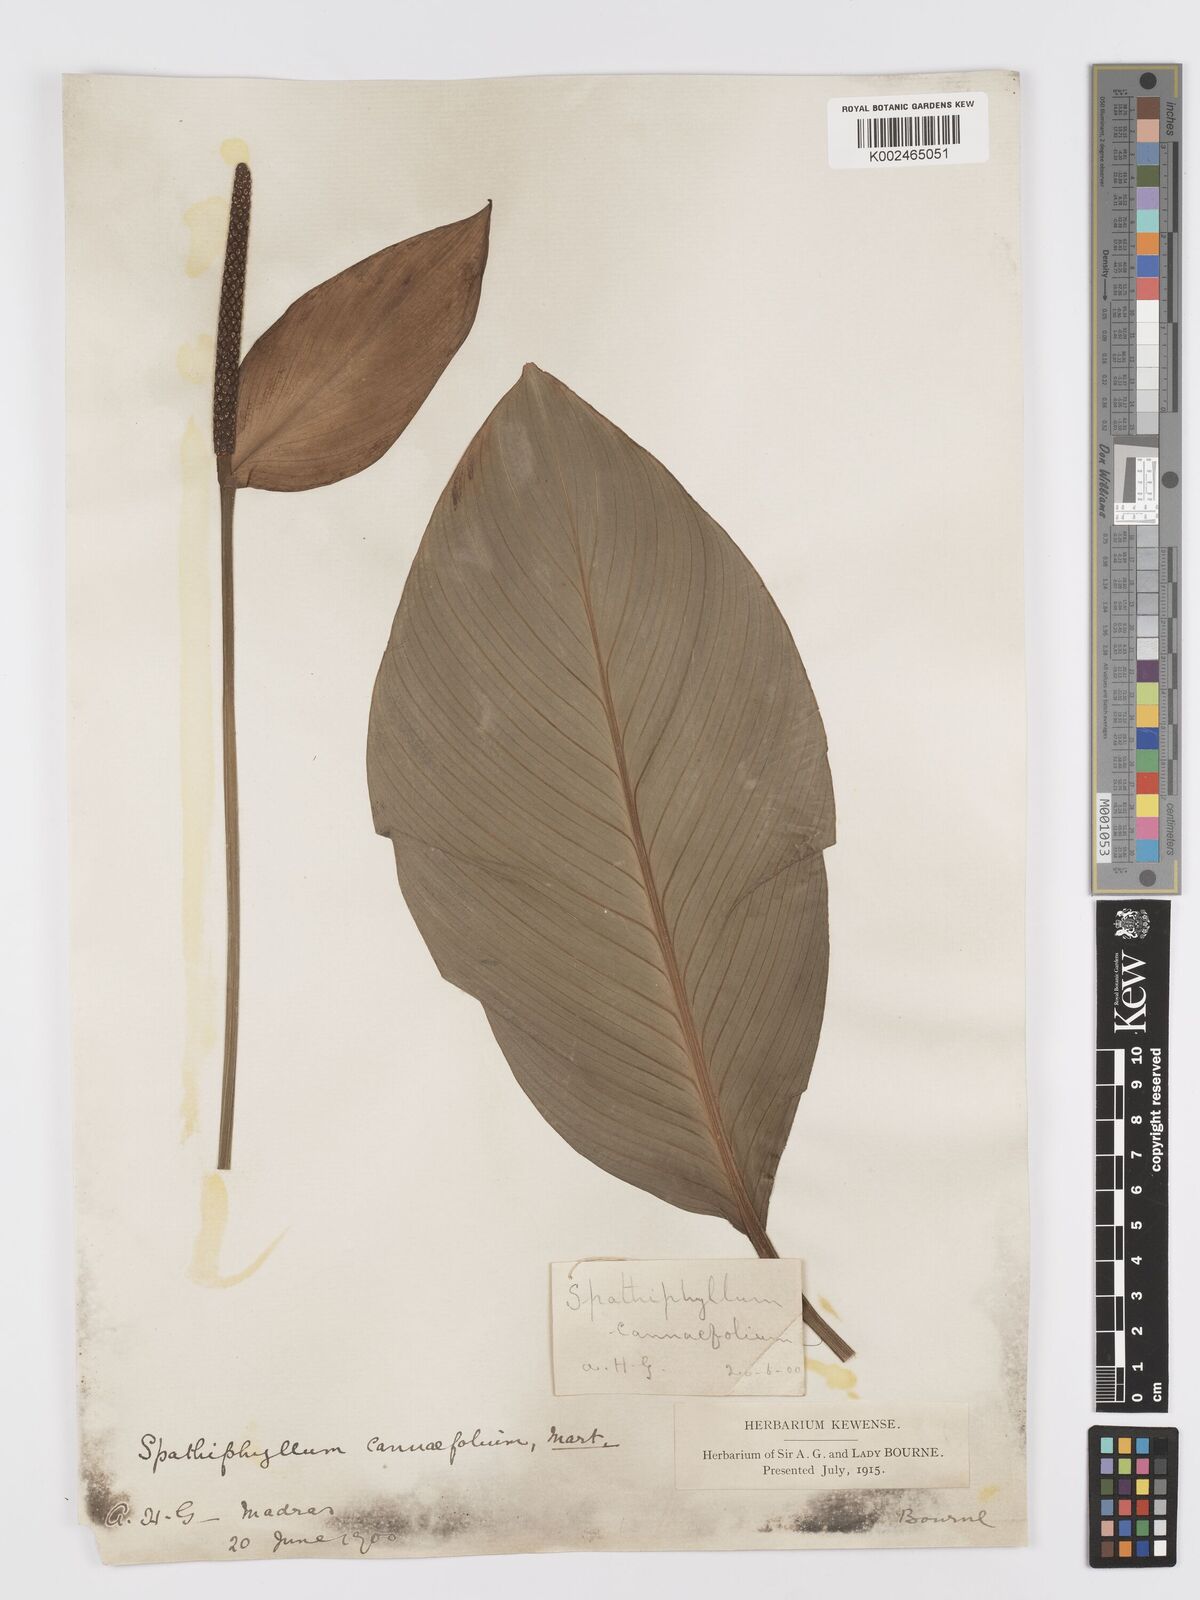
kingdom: Plantae
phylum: Tracheophyta
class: Liliopsida
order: Alismatales
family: Araceae
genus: Spathiphyllum
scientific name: Spathiphyllum cannifolium
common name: Spatheflower
